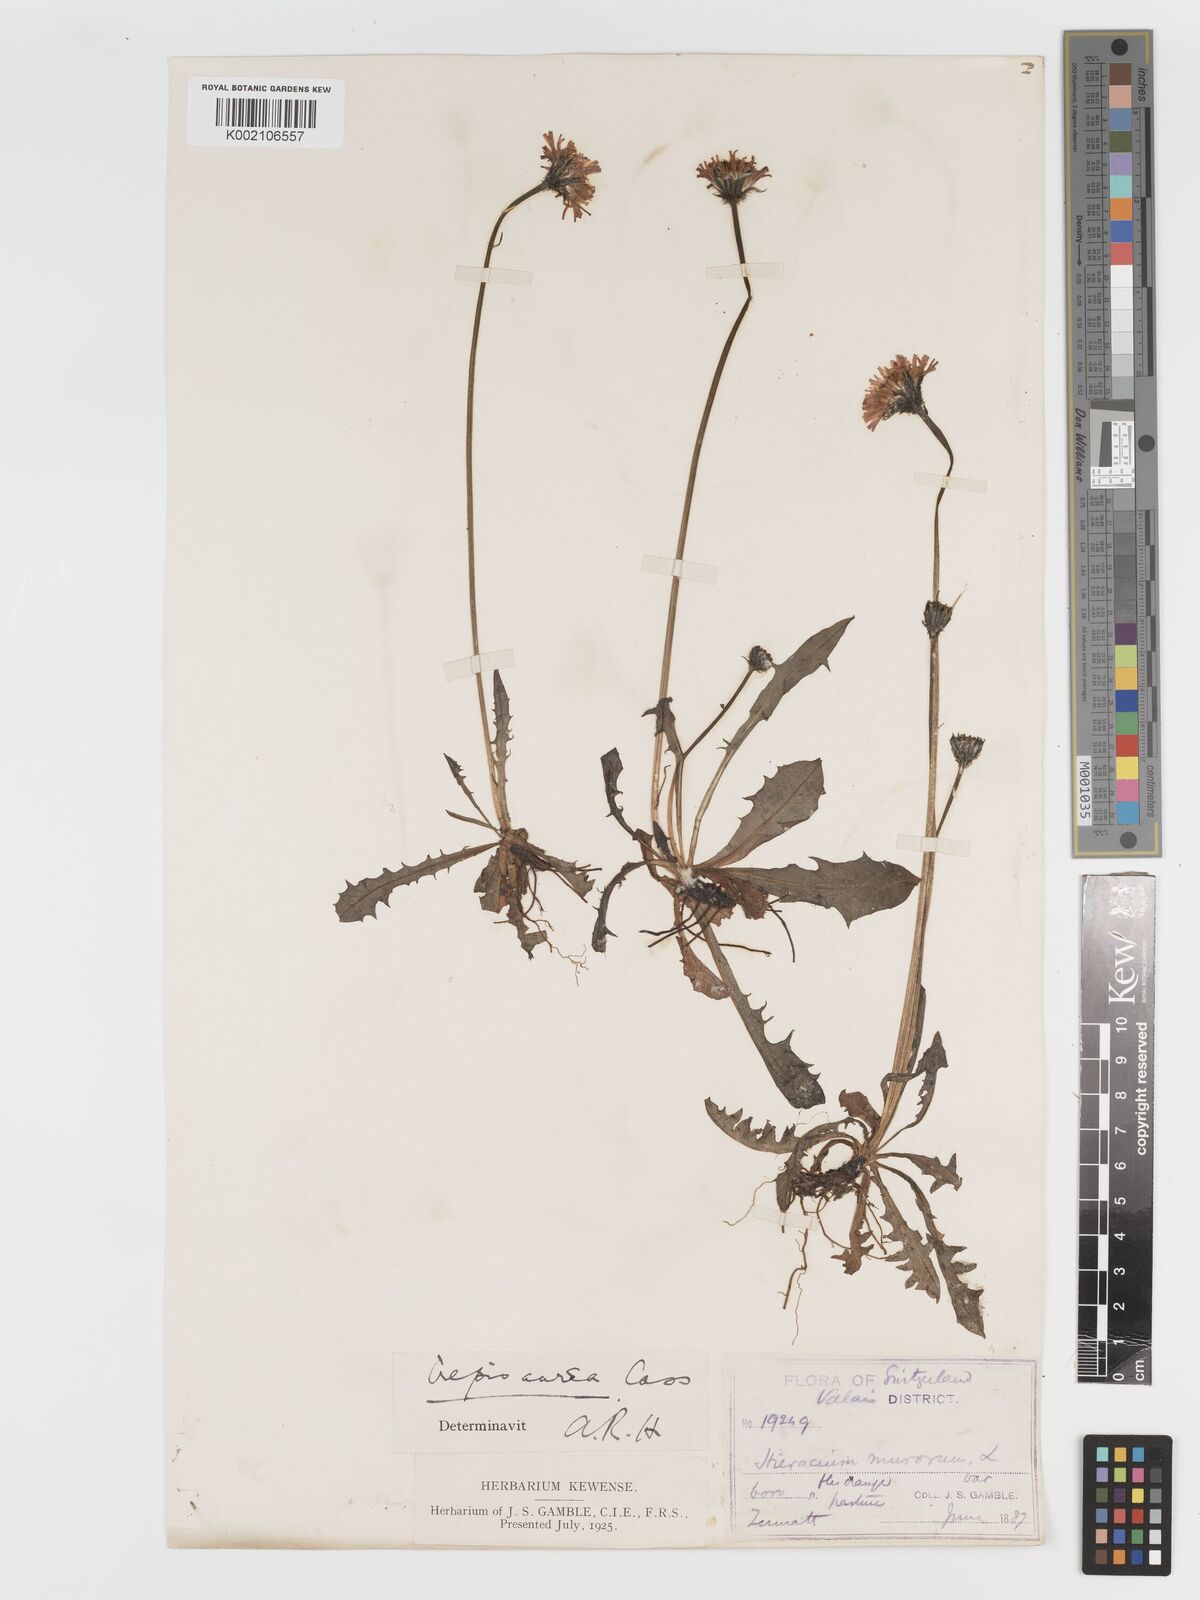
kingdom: Plantae
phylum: Tracheophyta
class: Magnoliopsida
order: Asterales
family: Asteraceae
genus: Crepis
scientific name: Crepis aurea
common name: Golden hawk's-beard
